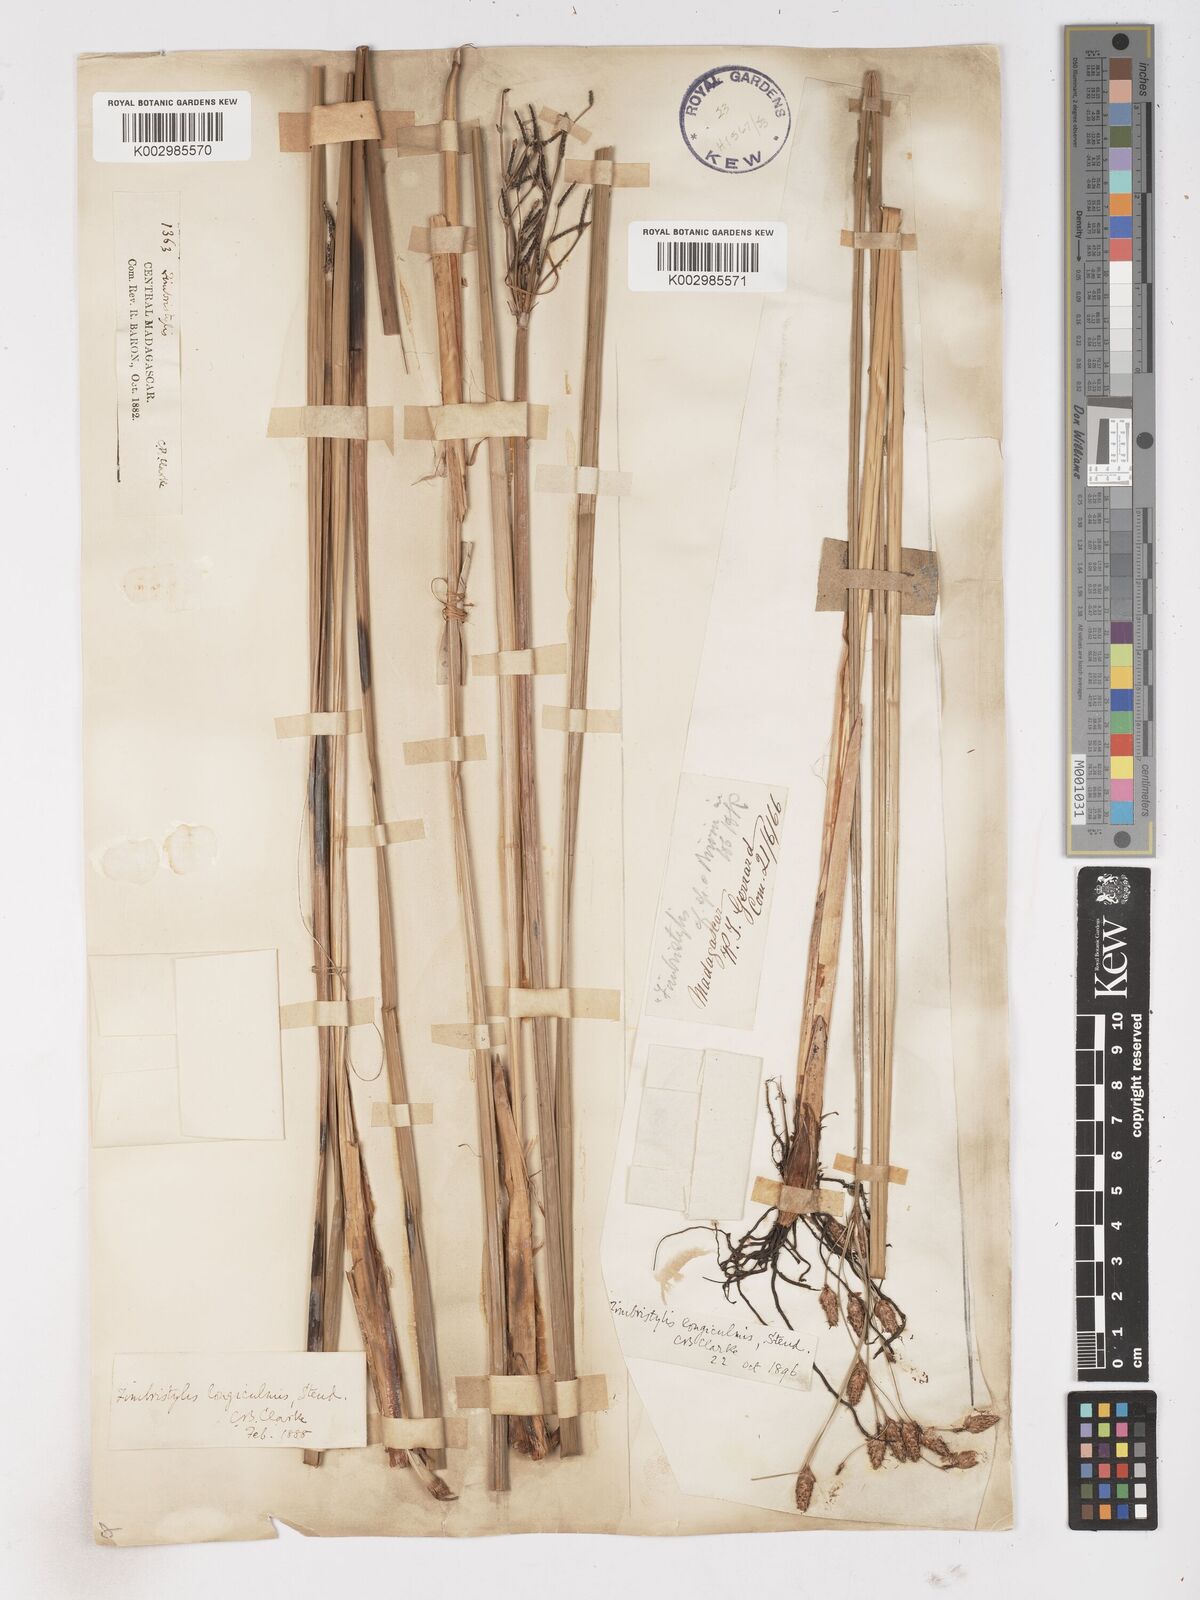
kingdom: Plantae
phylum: Tracheophyta
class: Liliopsida
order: Poales
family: Cyperaceae
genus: Fimbristylis
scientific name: Fimbristylis bivalvis
